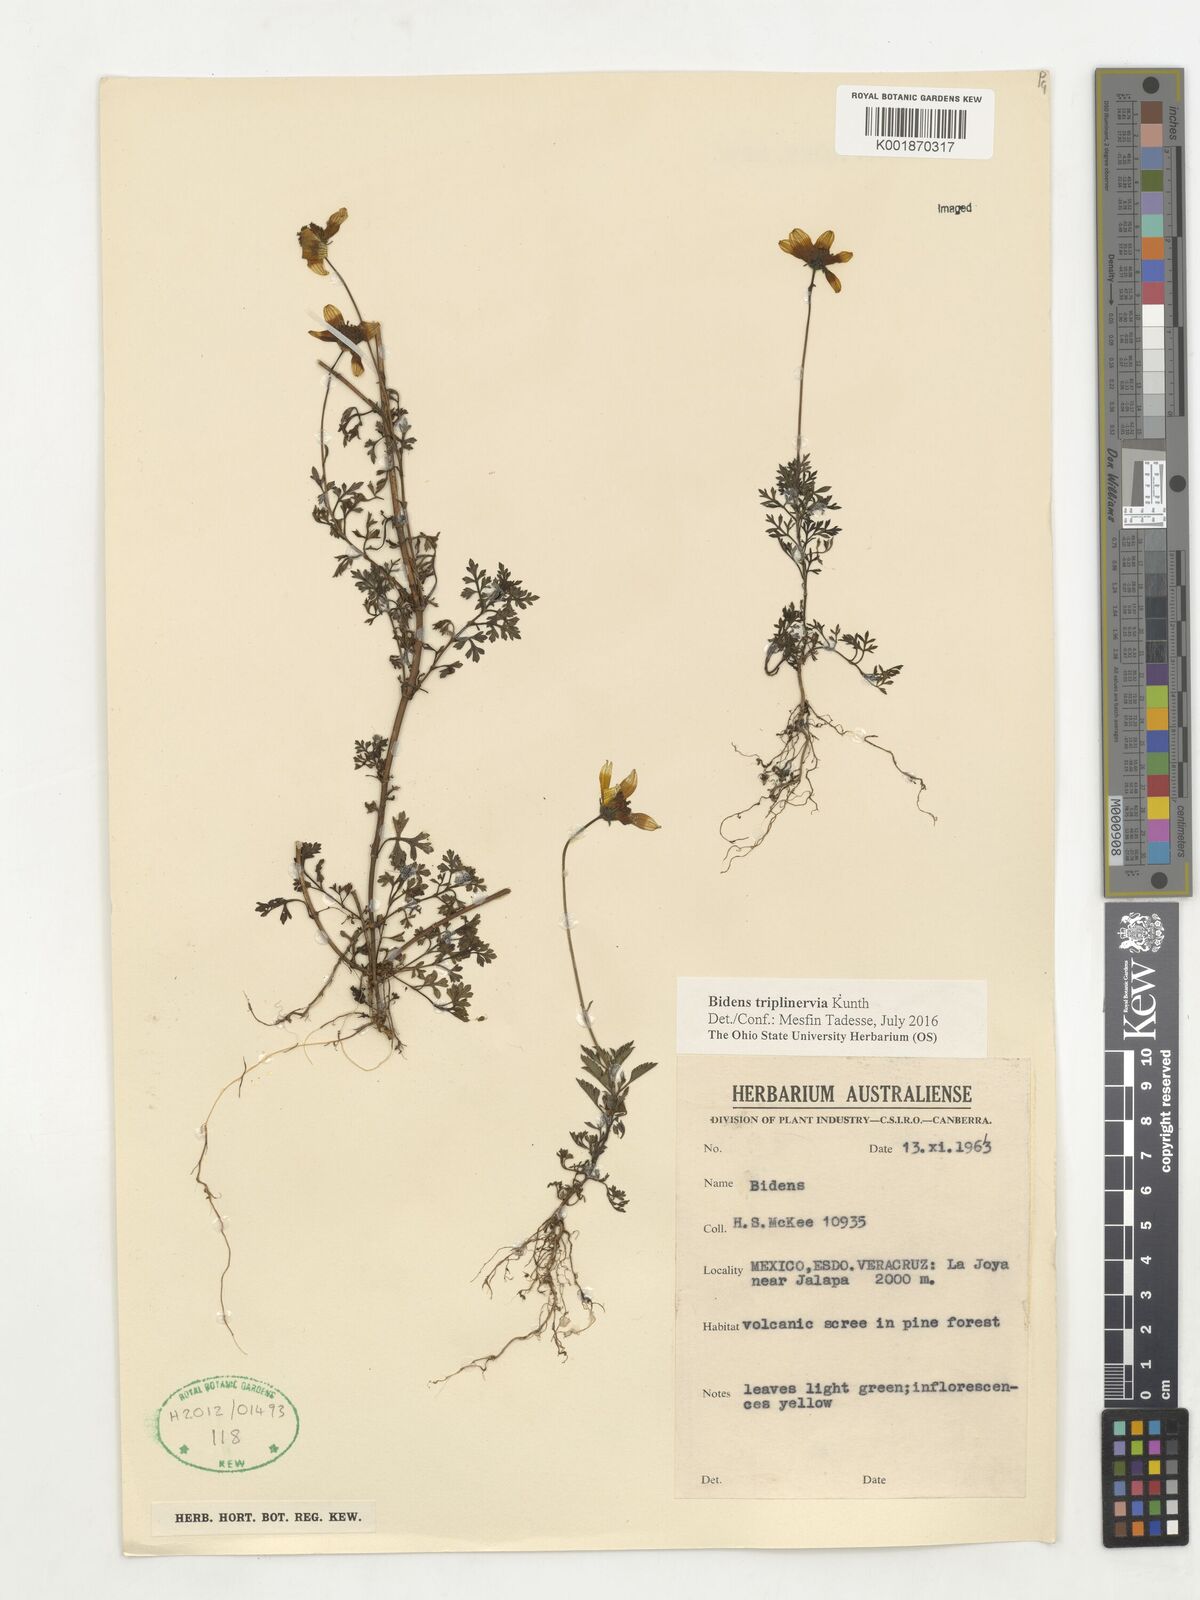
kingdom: Plantae
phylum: Tracheophyta
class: Magnoliopsida
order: Asterales
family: Asteraceae
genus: Bidens
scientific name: Bidens triplinervia
